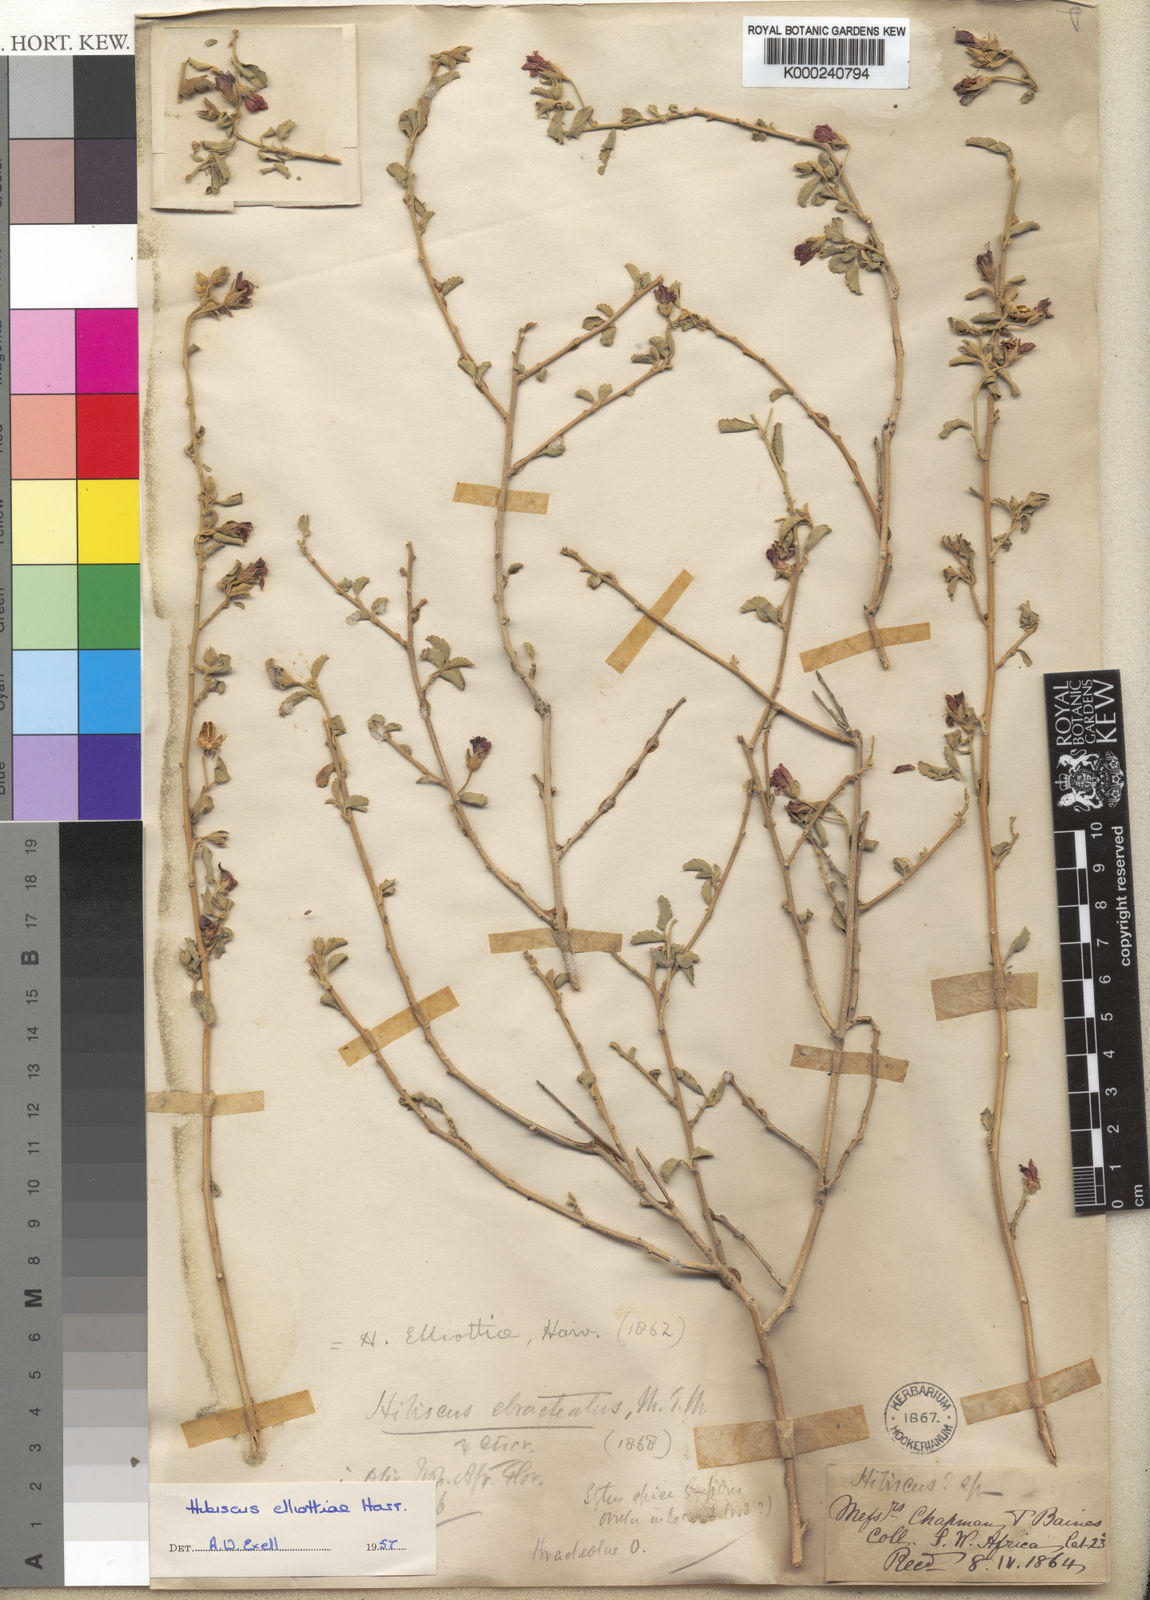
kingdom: Plantae
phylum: Tracheophyta
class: Magnoliopsida
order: Malvales
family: Malvaceae
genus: Hibiscus
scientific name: Hibiscus elliottiae
